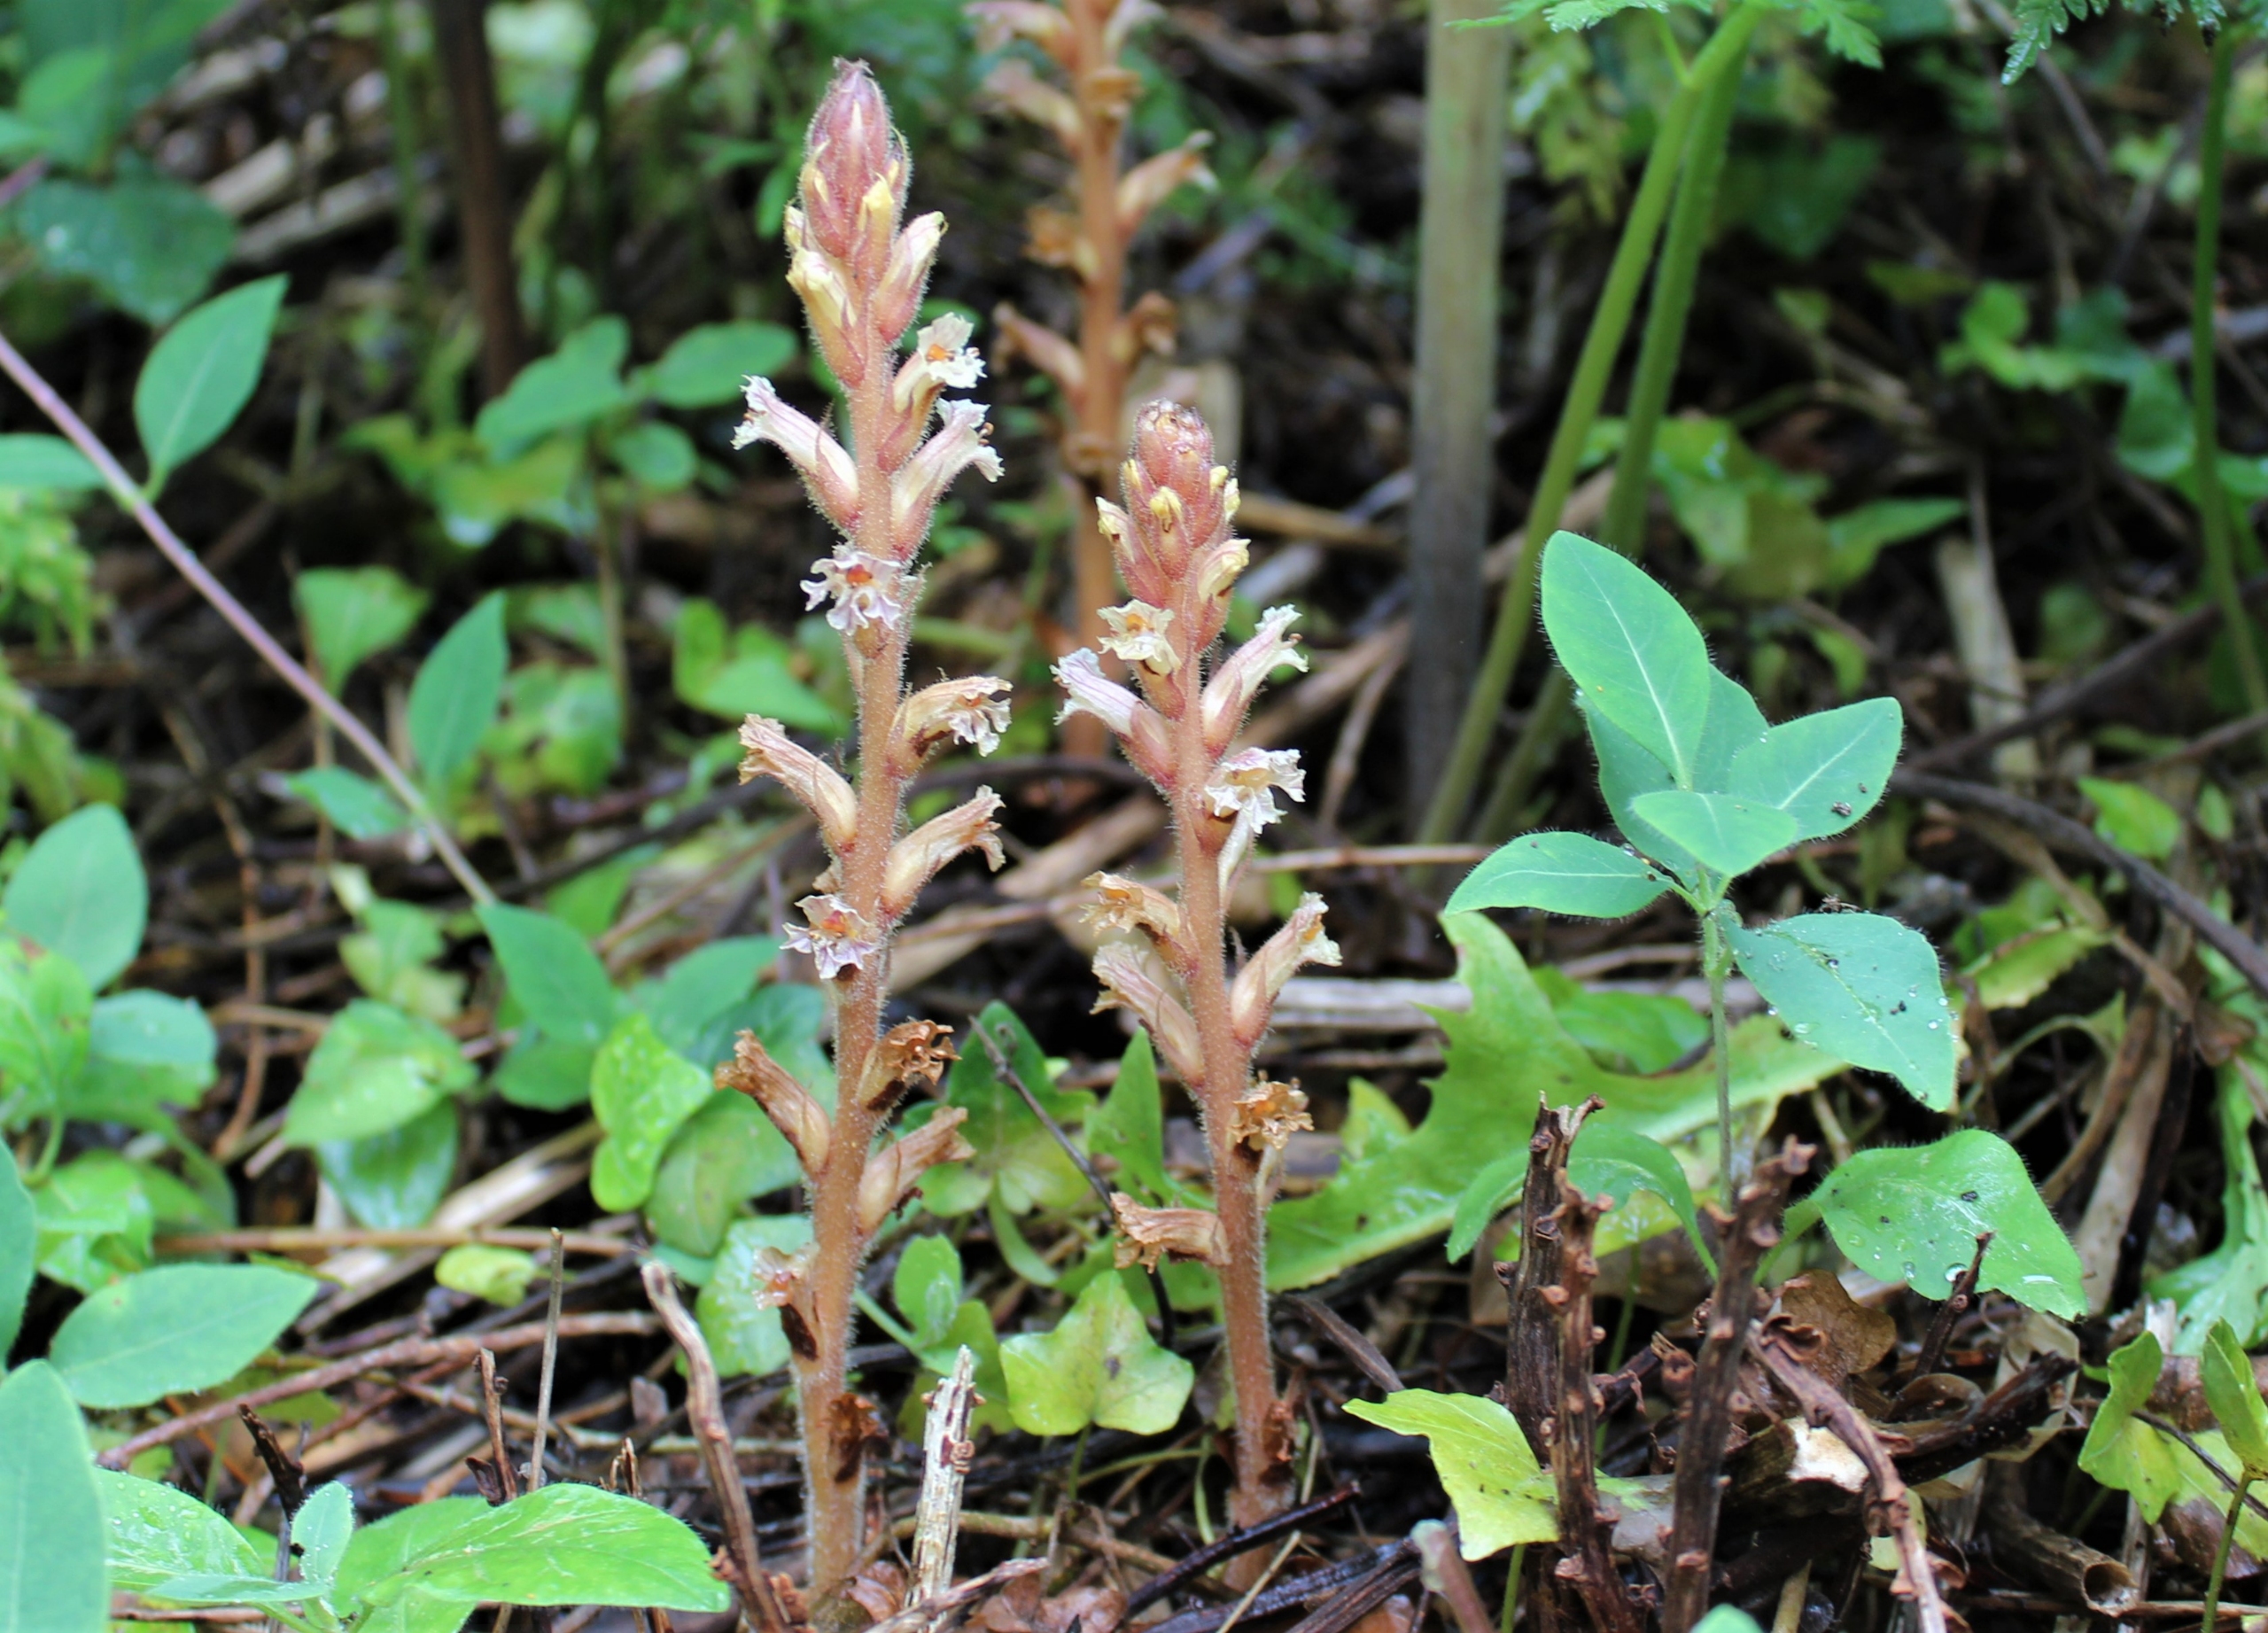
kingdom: Plantae
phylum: Tracheophyta
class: Magnoliopsida
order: Lamiales
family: Orobanchaceae
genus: Orobanche
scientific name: Orobanche hederae
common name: Vedbend-gyvelkvæler
